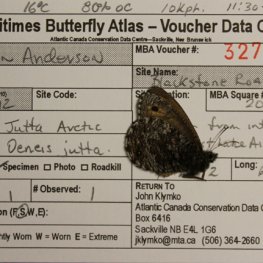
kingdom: Animalia
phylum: Arthropoda
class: Insecta
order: Lepidoptera
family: Nymphalidae
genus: Oeneis
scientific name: Oeneis jutta
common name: Jutta Arctic
